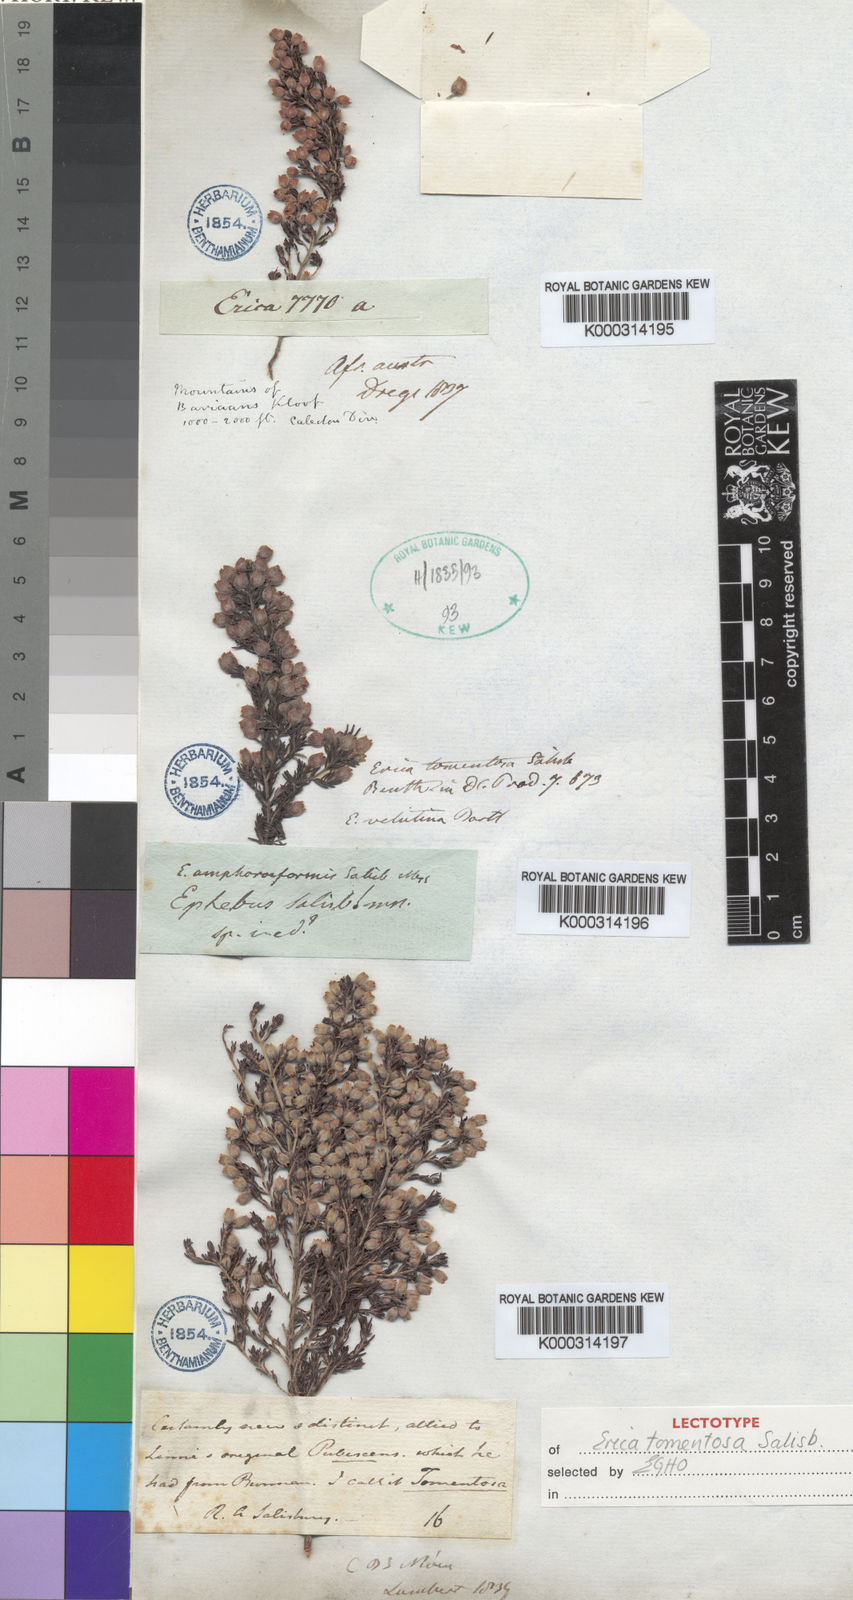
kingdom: Plantae
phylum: Tracheophyta
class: Magnoliopsida
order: Ericales
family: Ericaceae
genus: Erica
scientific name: Erica tomentosa
